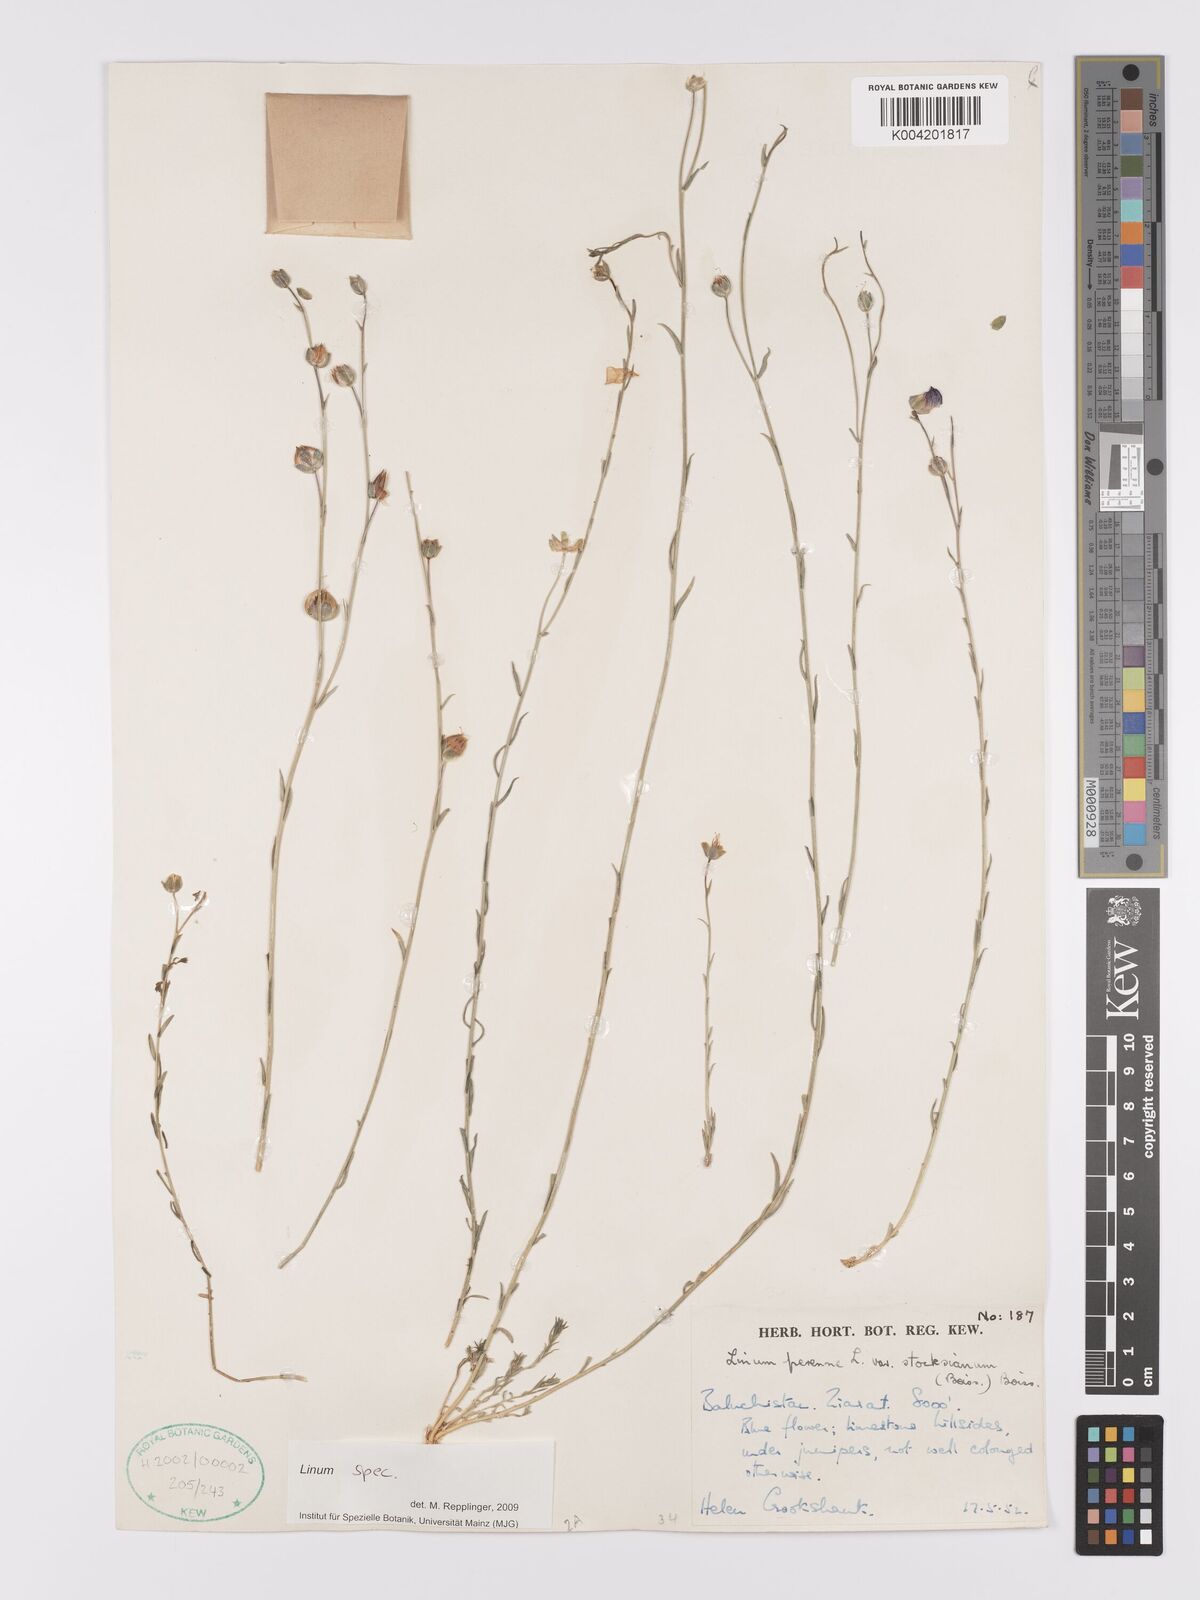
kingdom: Plantae
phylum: Tracheophyta
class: Magnoliopsida
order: Malpighiales
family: Linaceae
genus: Linum
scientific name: Linum stocksianum
